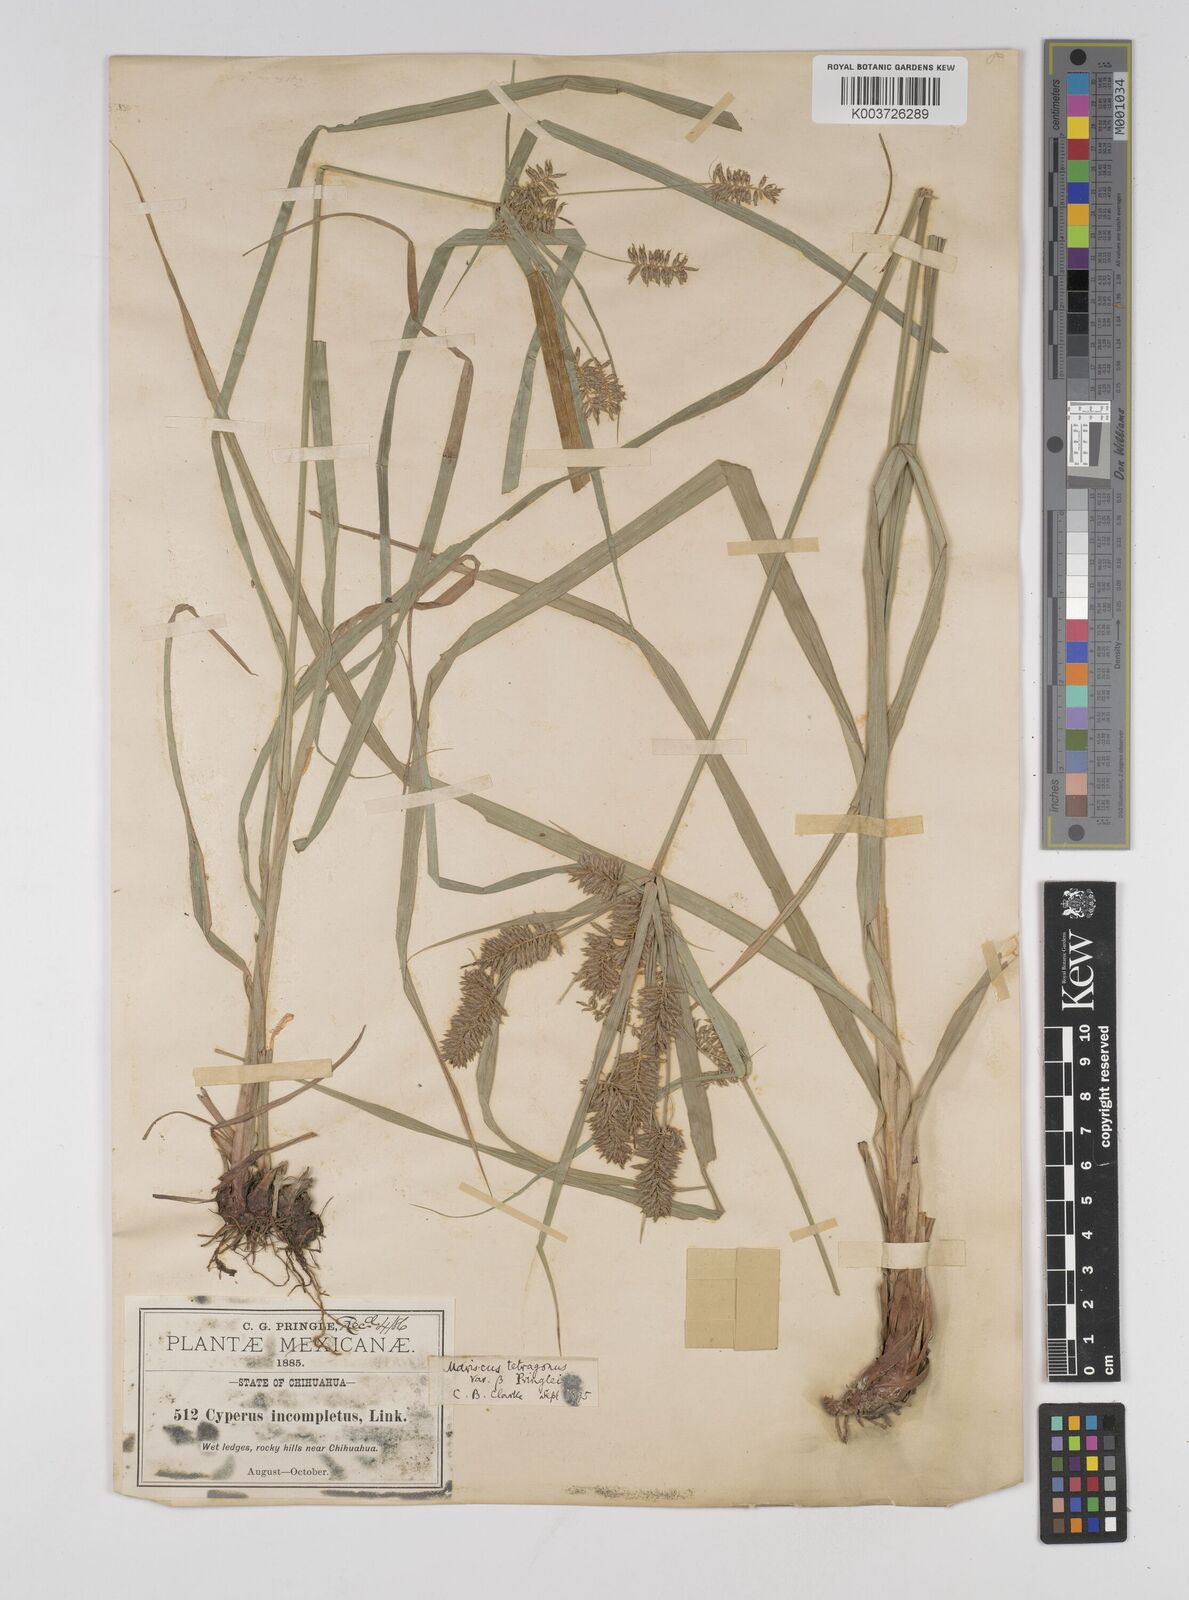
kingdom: Plantae
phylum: Tracheophyta
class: Liliopsida
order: Poales
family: Cyperaceae
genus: Cyperus
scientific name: Cyperus tetragonus
